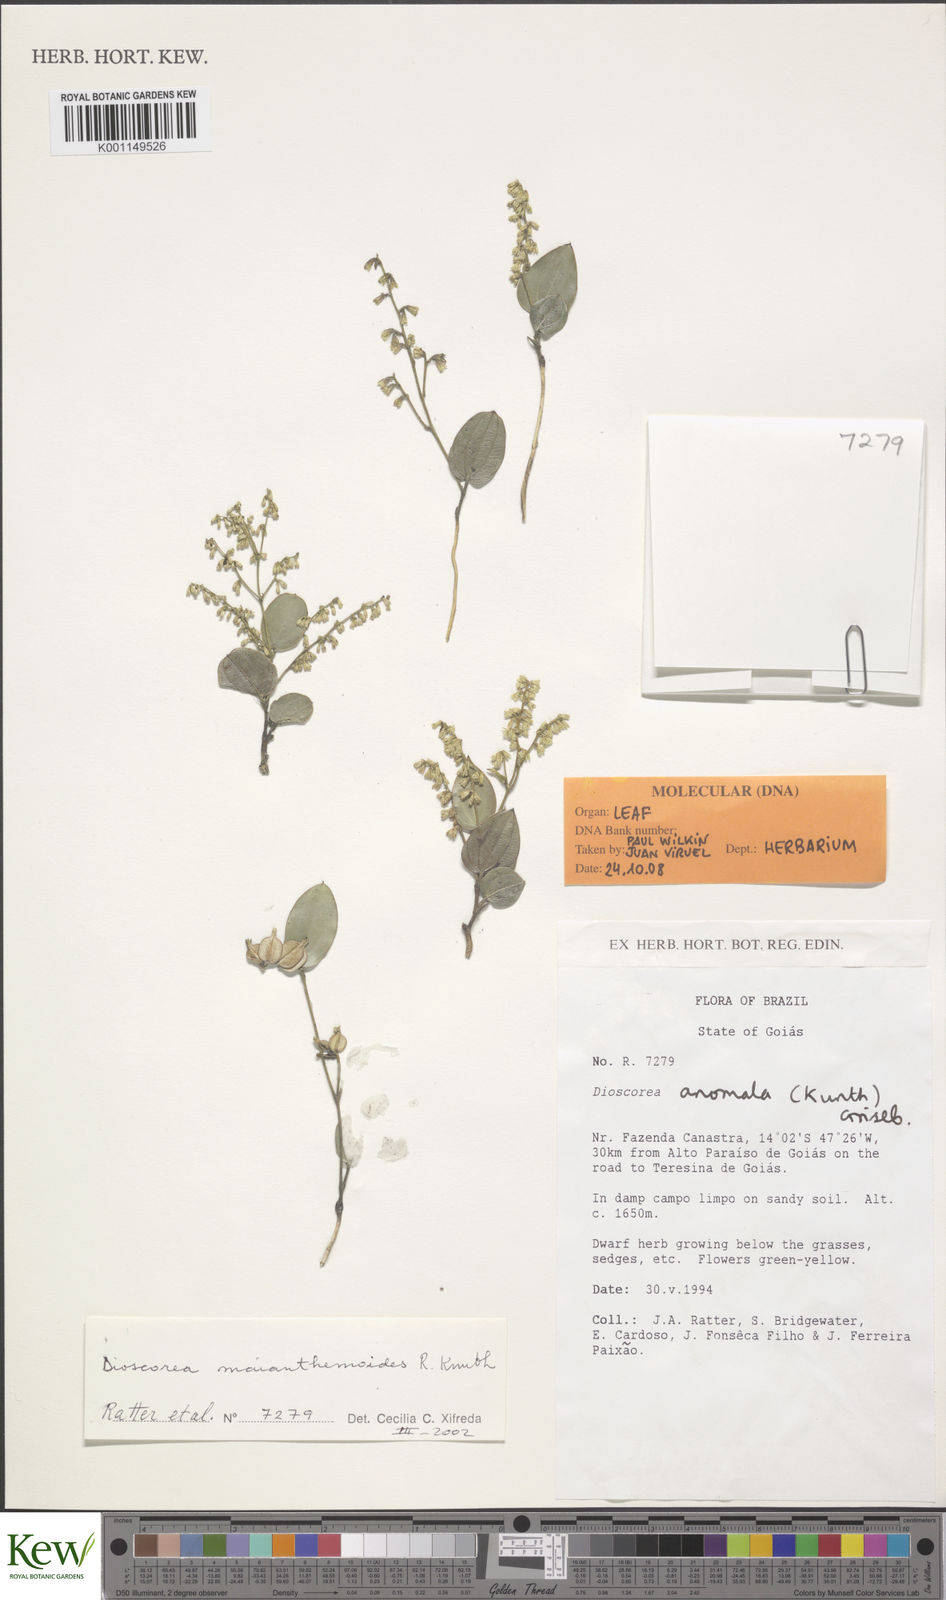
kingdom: Plantae
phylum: Tracheophyta
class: Liliopsida
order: Dioscoreales
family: Dioscoreaceae
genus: Dioscorea
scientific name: Dioscorea maianthemoides
